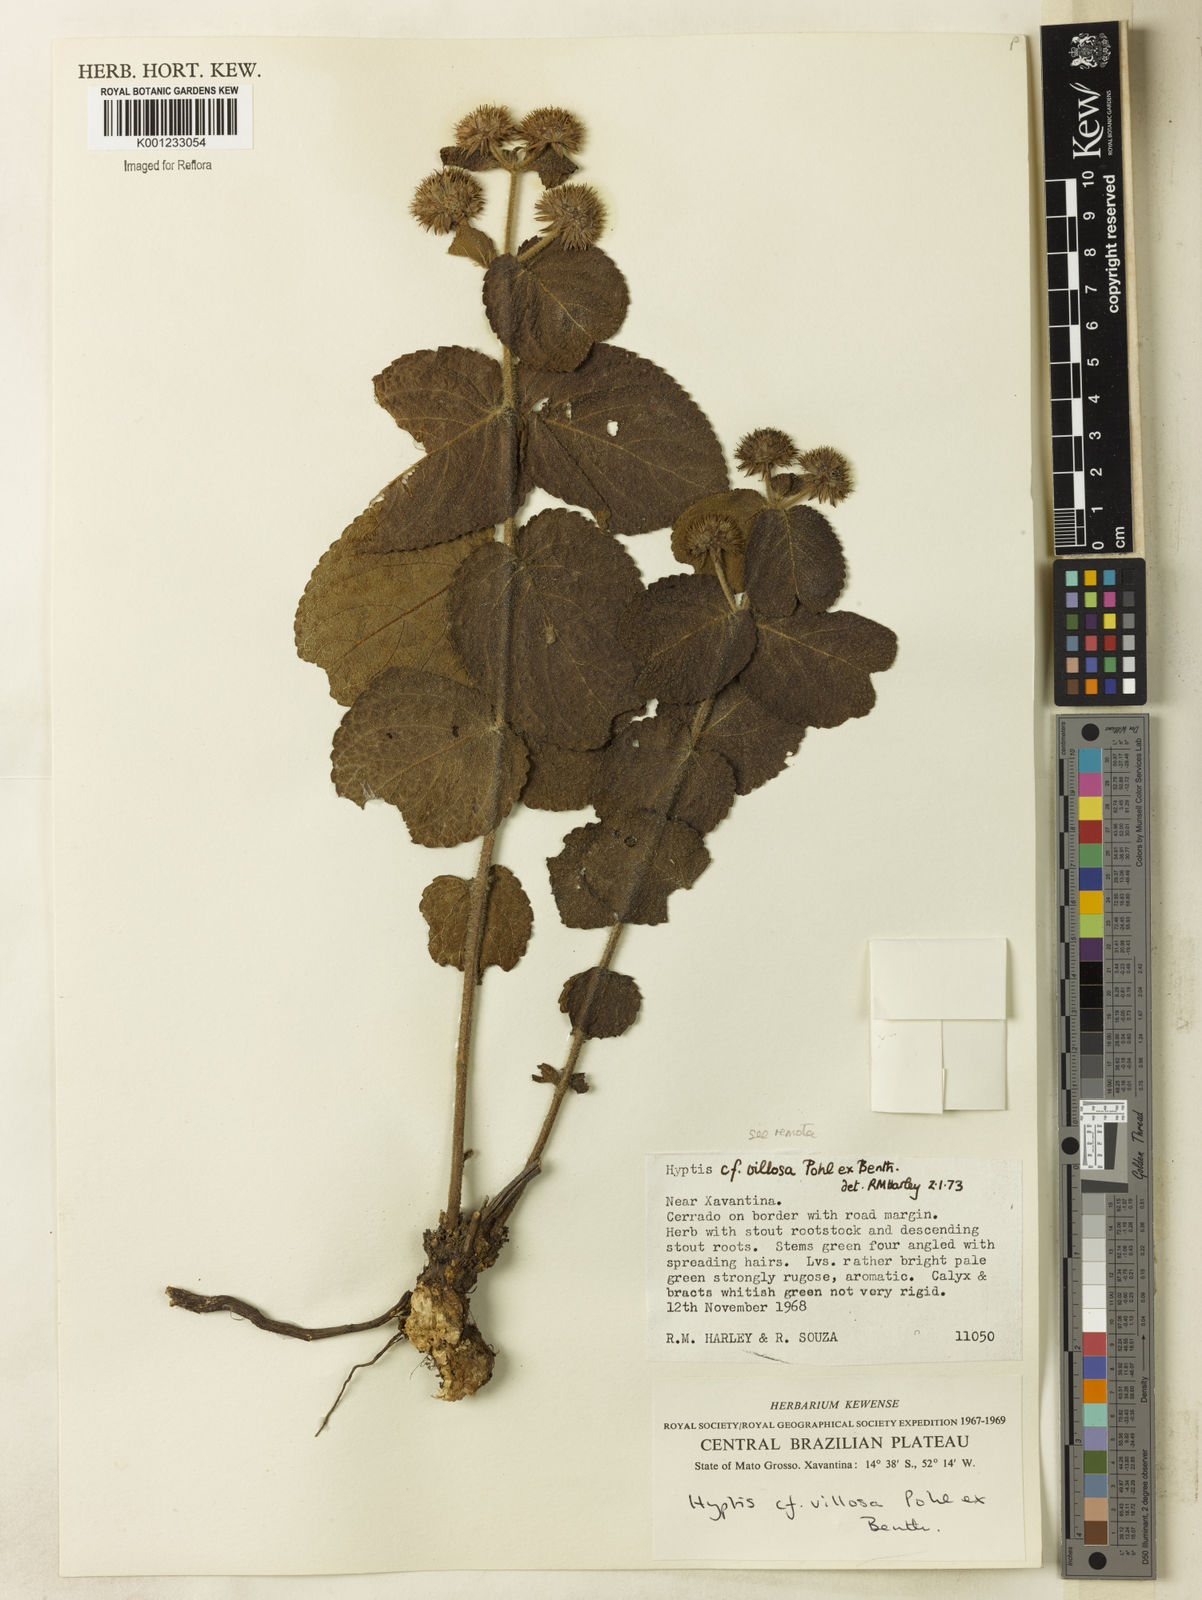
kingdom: Plantae
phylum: Tracheophyta
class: Magnoliopsida
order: Lamiales
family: Lamiaceae
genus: Hyptis
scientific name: Hyptis remota
